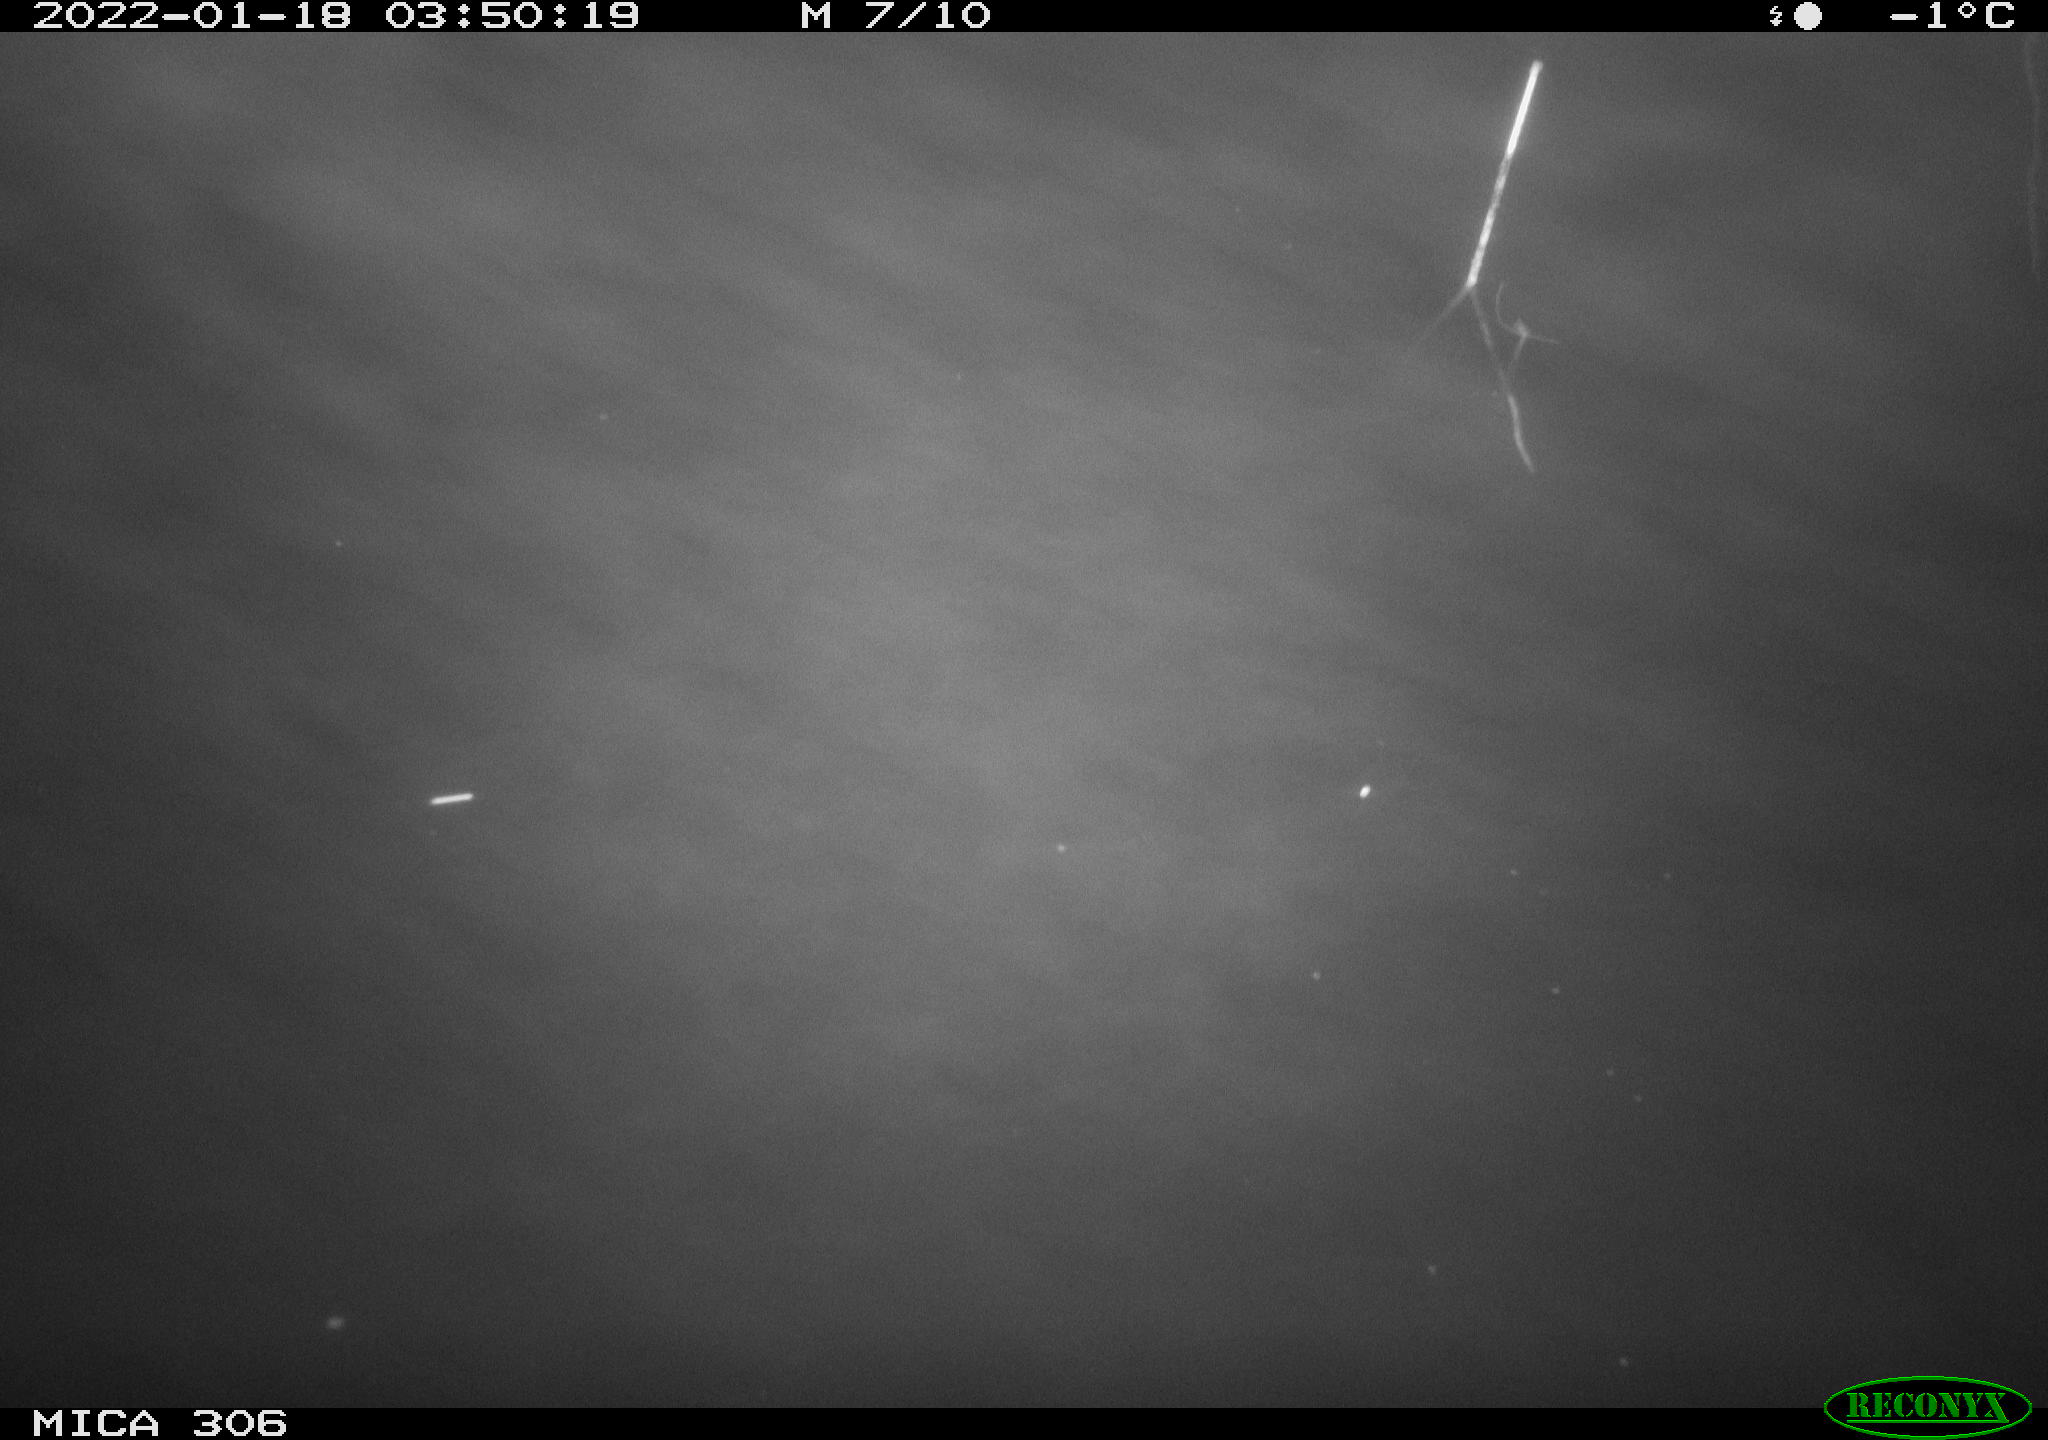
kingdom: Animalia
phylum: Chordata
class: Mammalia
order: Rodentia
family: Cricetidae
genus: Ondatra
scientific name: Ondatra zibethicus
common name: Muskrat
